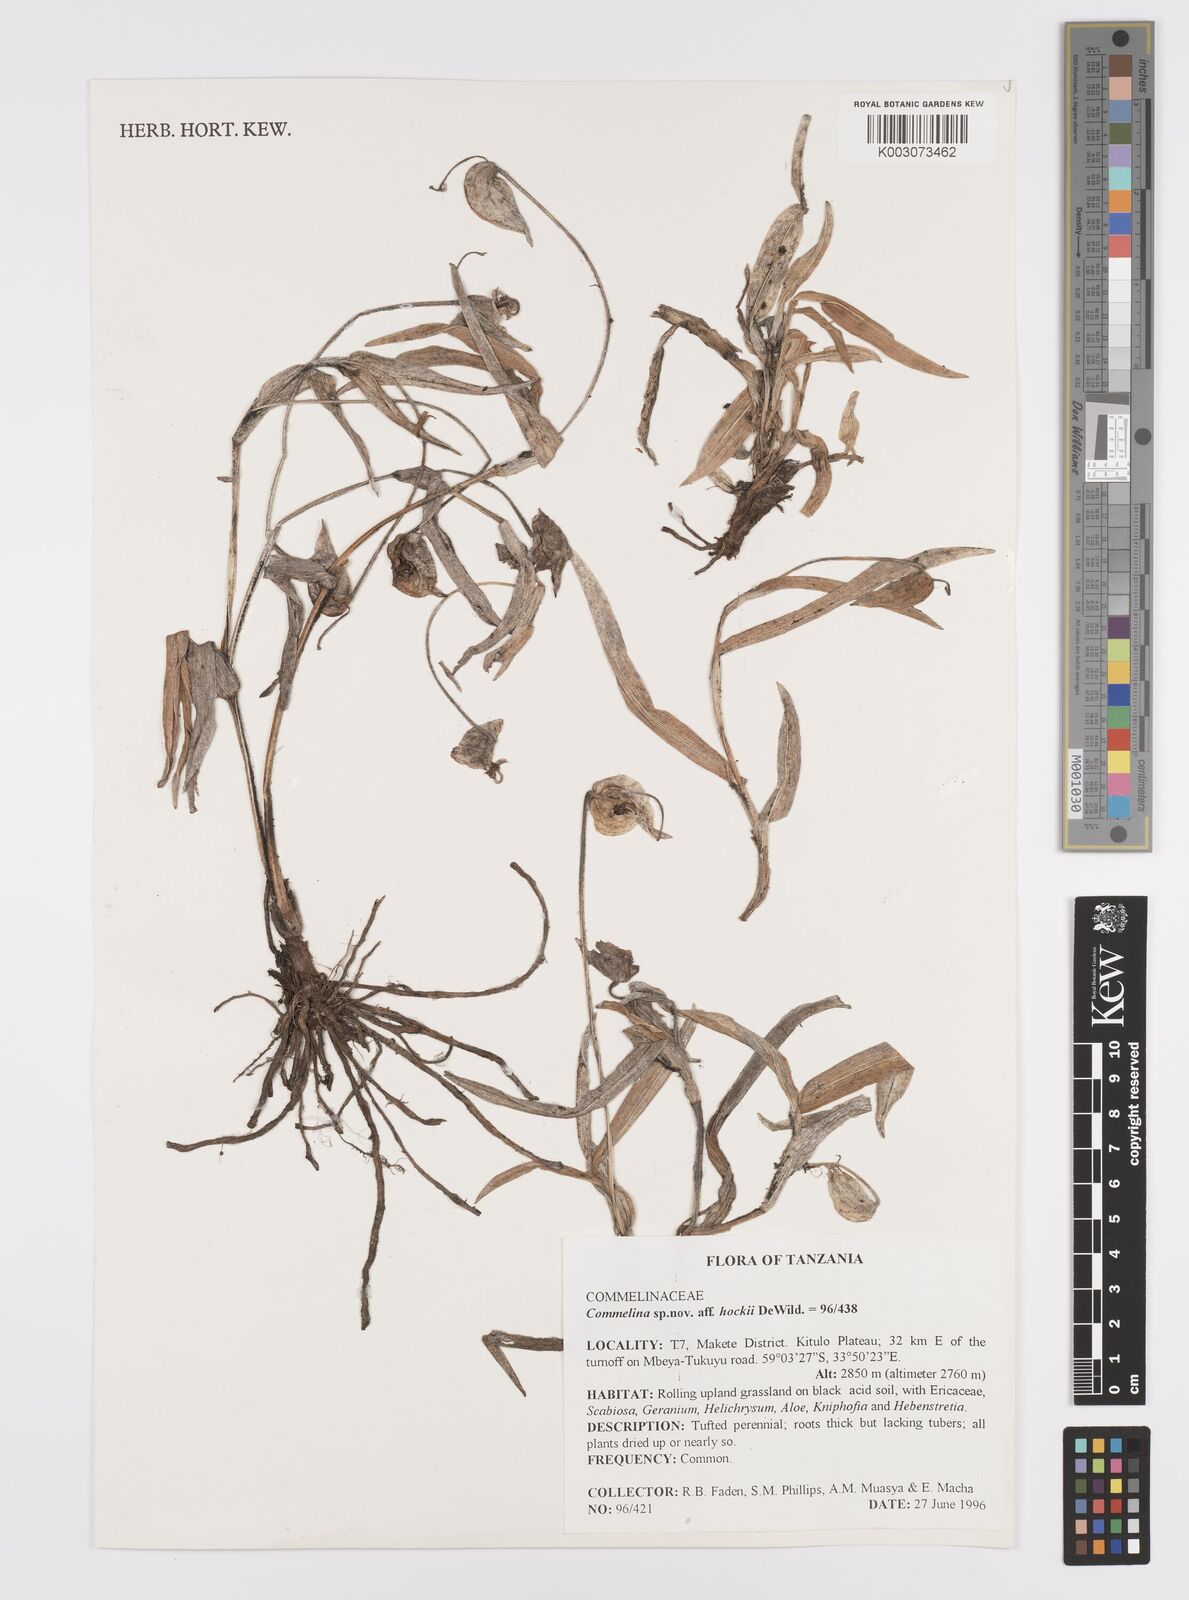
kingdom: Plantae
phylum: Tracheophyta
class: Liliopsida
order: Commelinales
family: Commelinaceae
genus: Commelina
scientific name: Commelina kituloensis
